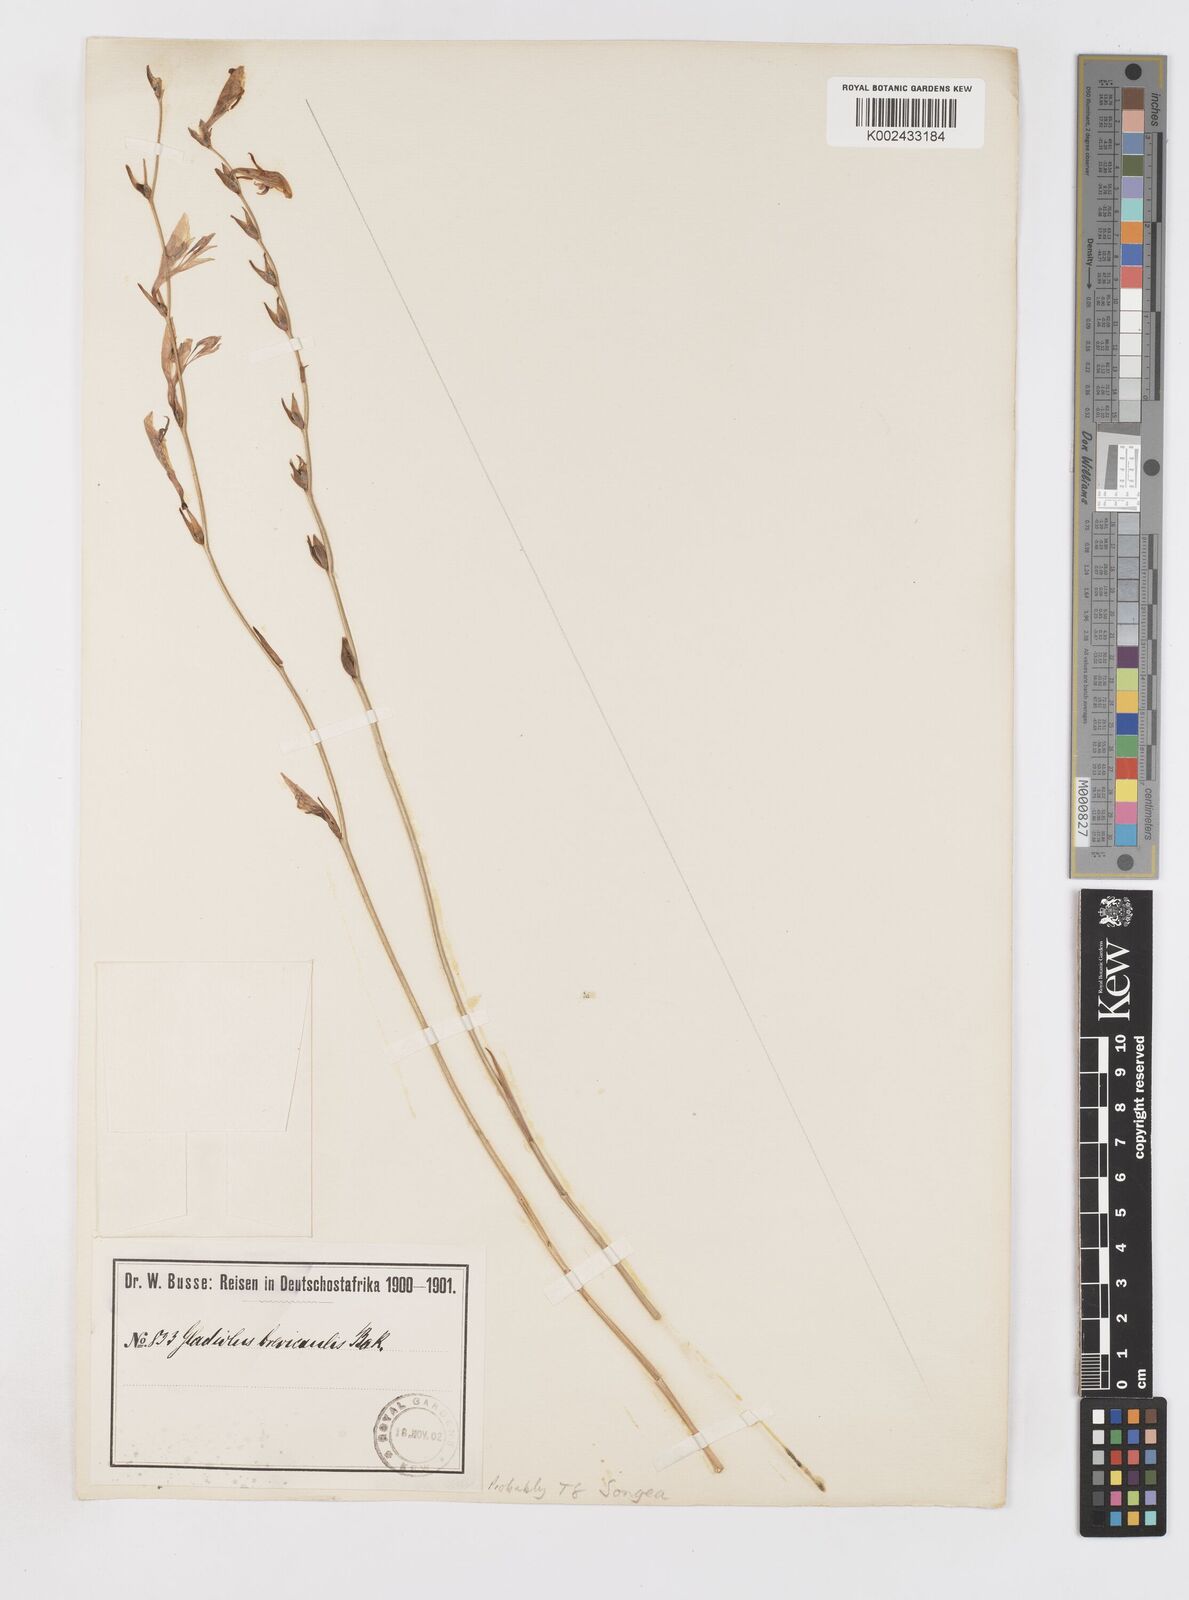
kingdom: Plantae
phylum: Tracheophyta
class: Liliopsida
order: Asparagales
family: Iridaceae
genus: Gladiolus
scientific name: Gladiolus atropurpureus
